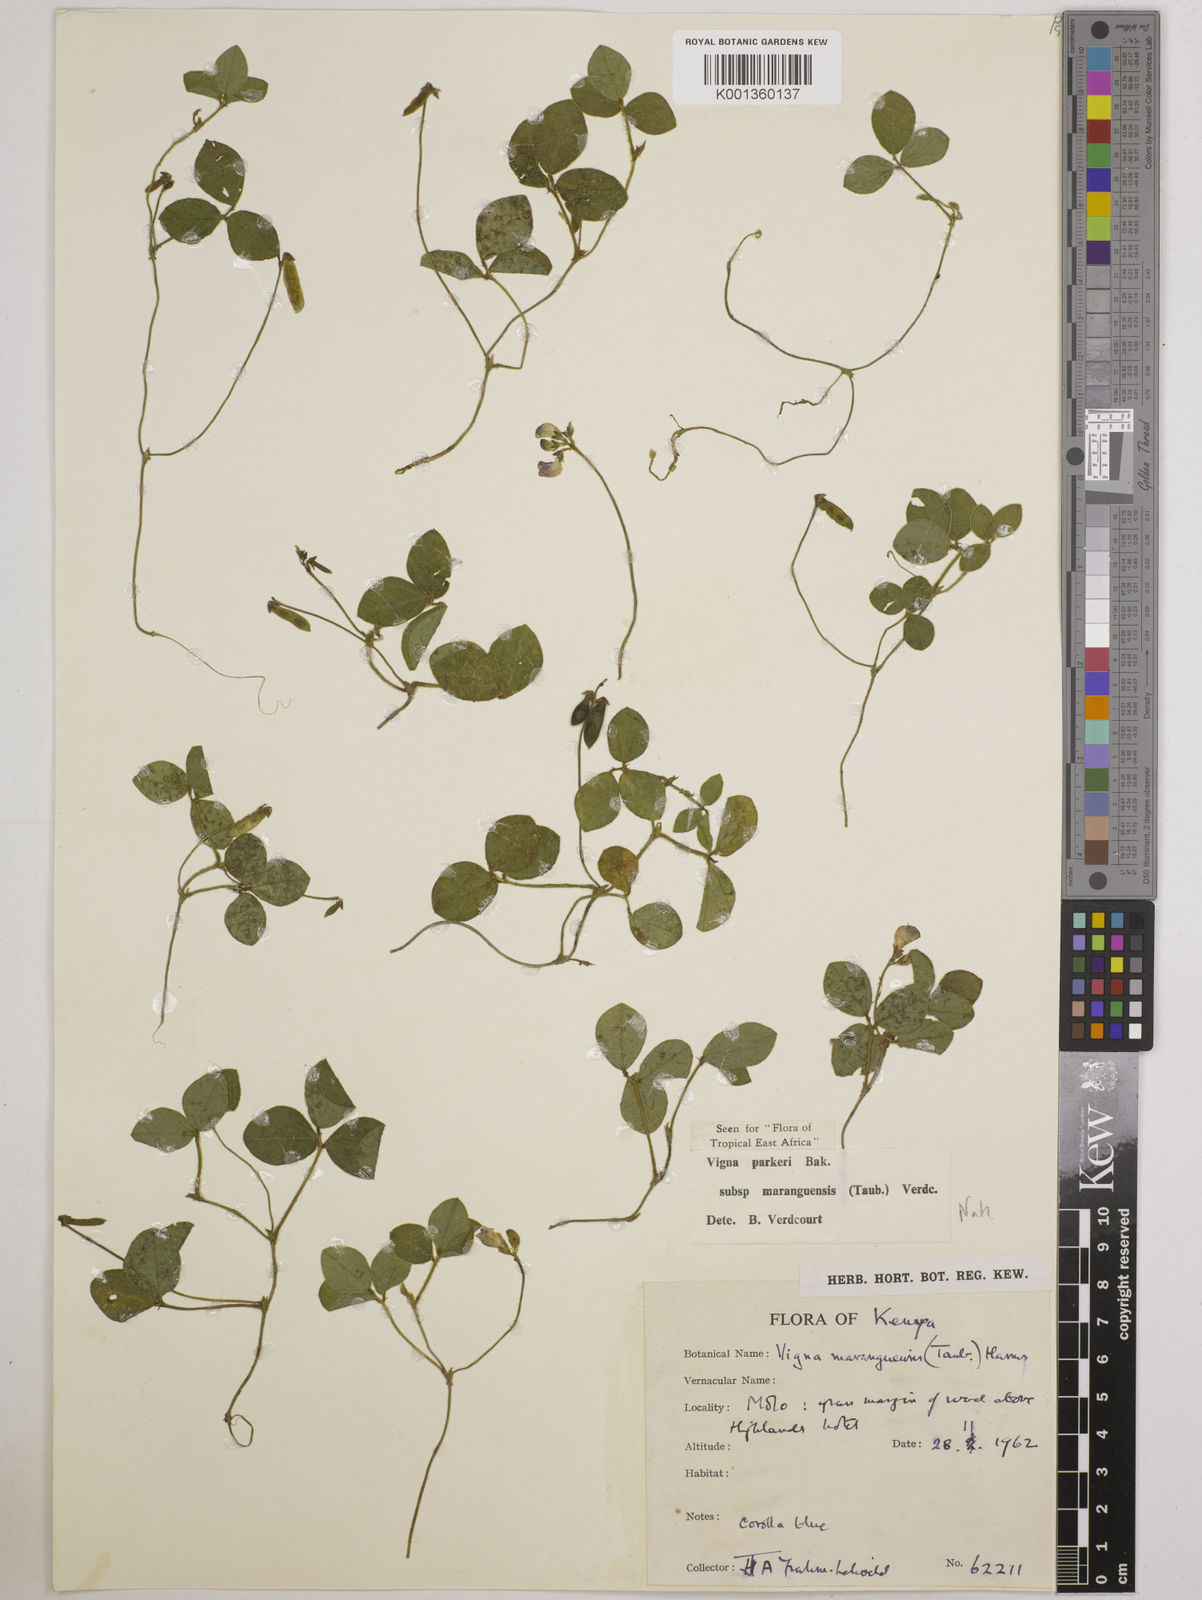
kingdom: Plantae
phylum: Tracheophyta
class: Magnoliopsida
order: Fabales
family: Fabaceae
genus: Vigna
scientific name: Vigna
